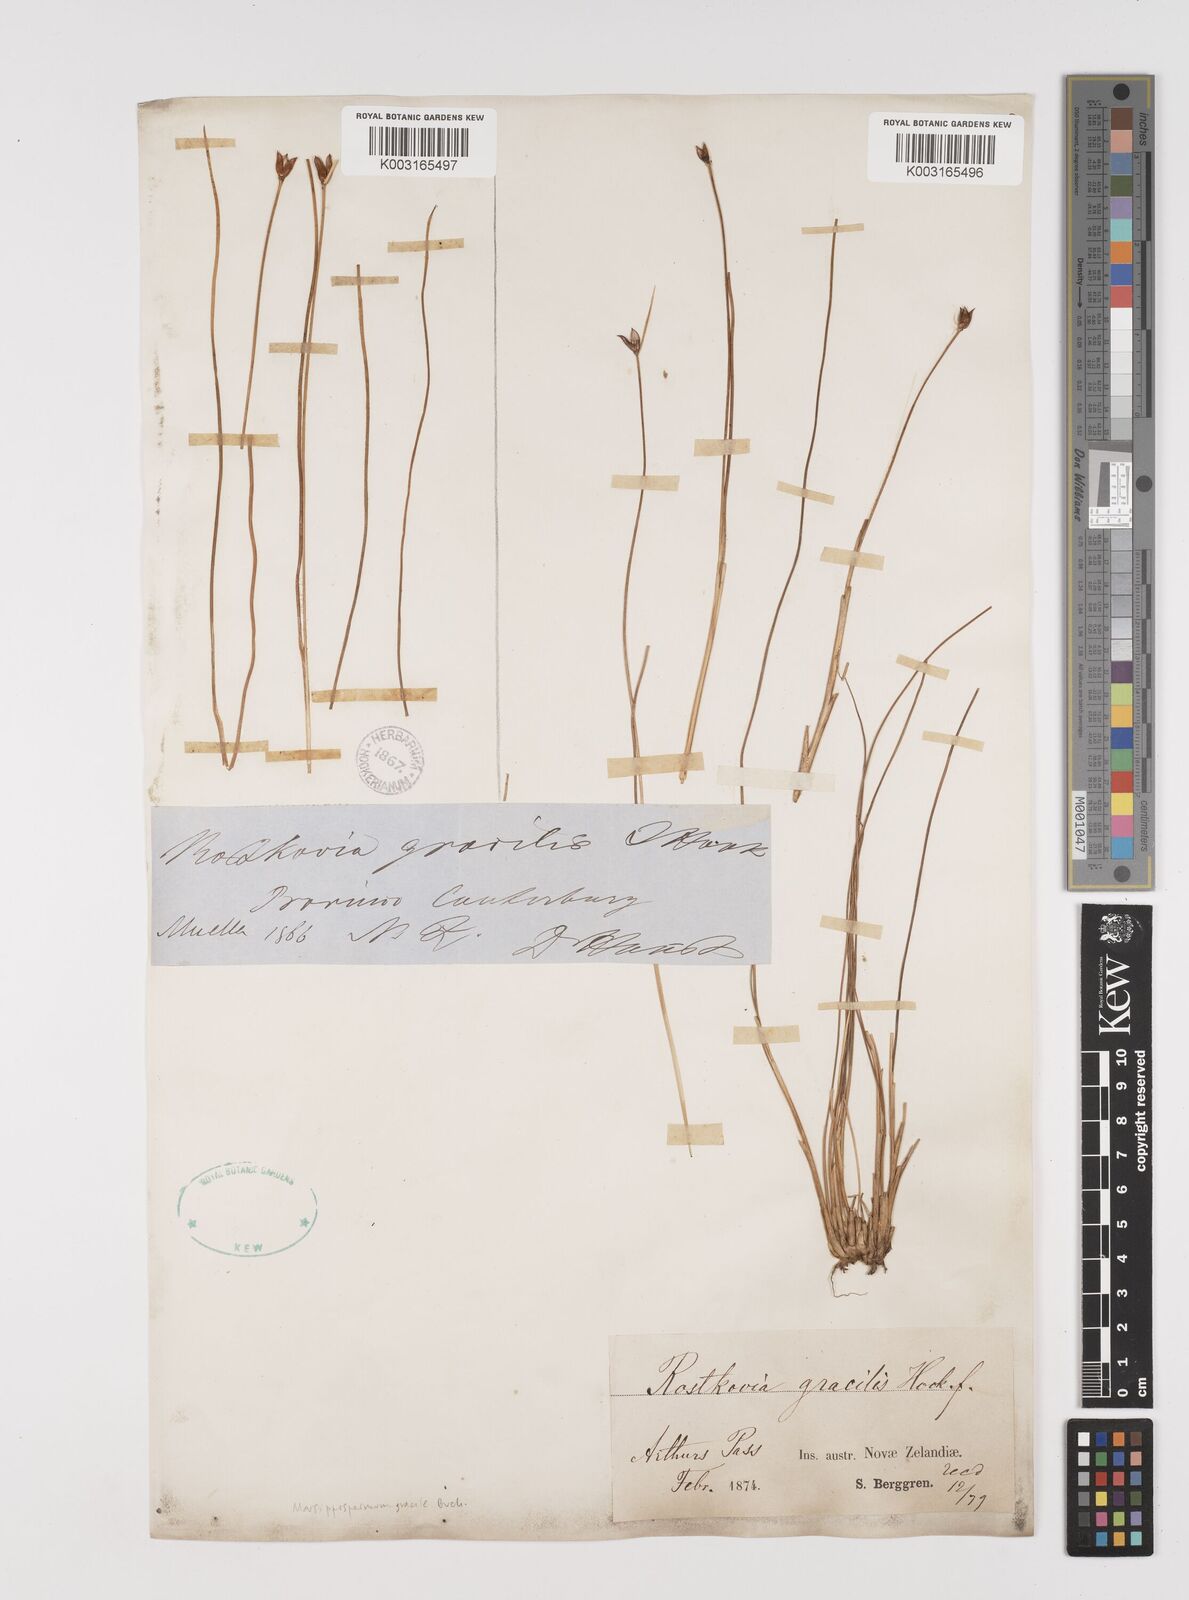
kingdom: Plantae
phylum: Tracheophyta
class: Liliopsida
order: Poales
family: Juncaceae
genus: Rostkovia
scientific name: Rostkovia magellanica
